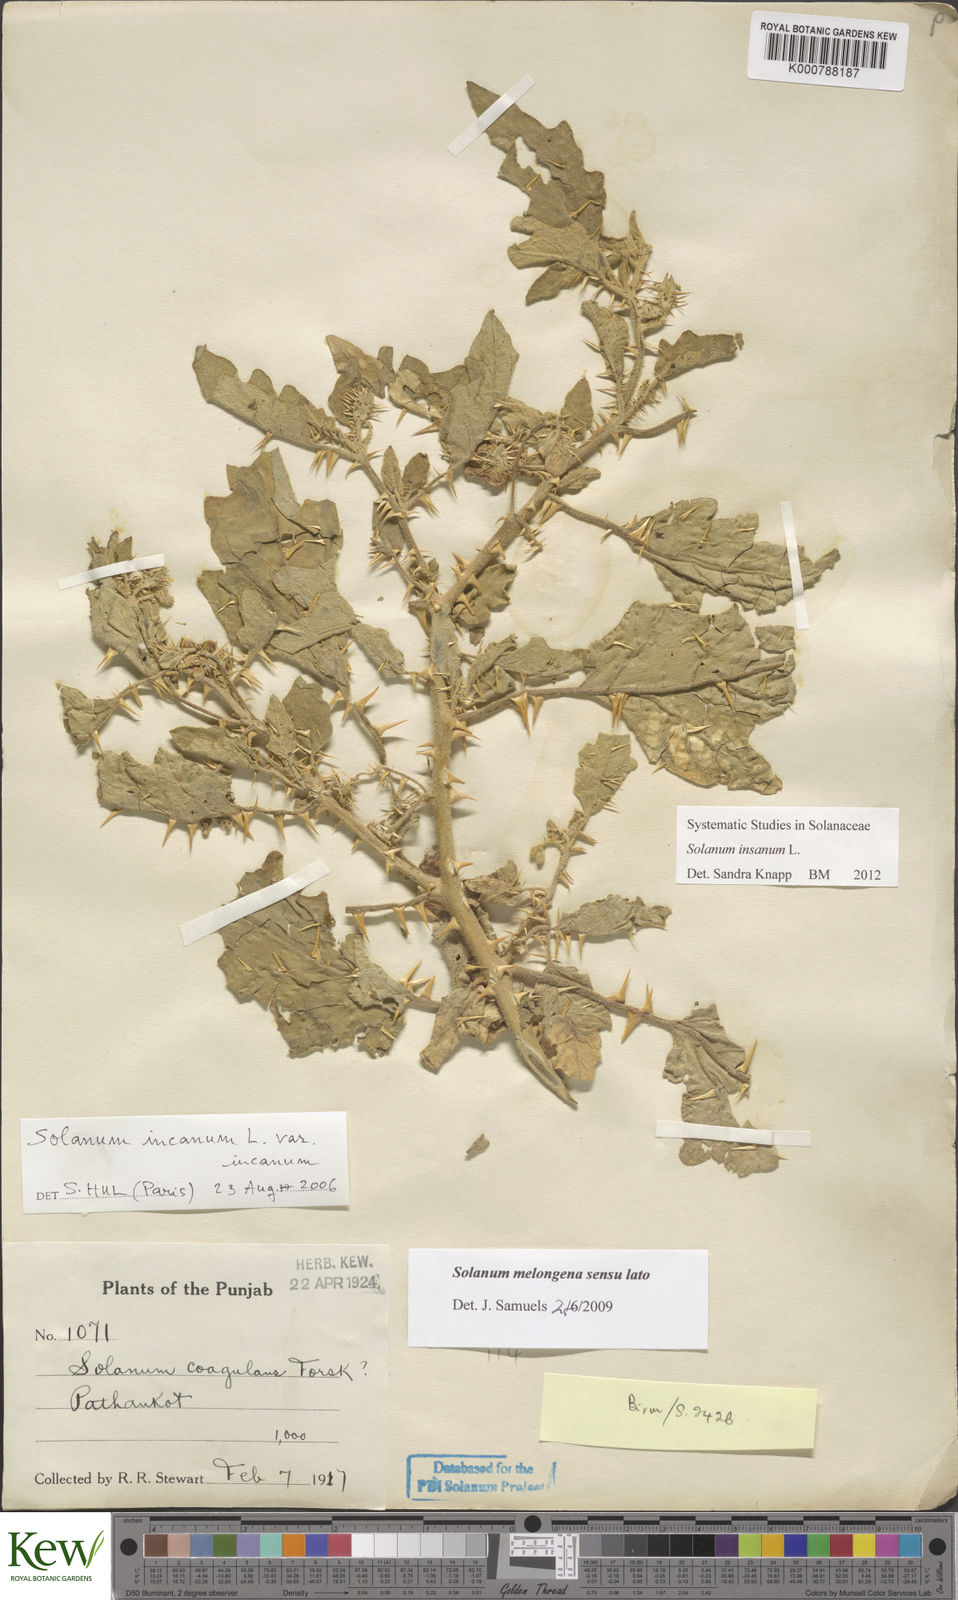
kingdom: Plantae
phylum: Tracheophyta
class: Magnoliopsida
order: Solanales
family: Solanaceae
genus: Solanum
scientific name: Solanum insanum
